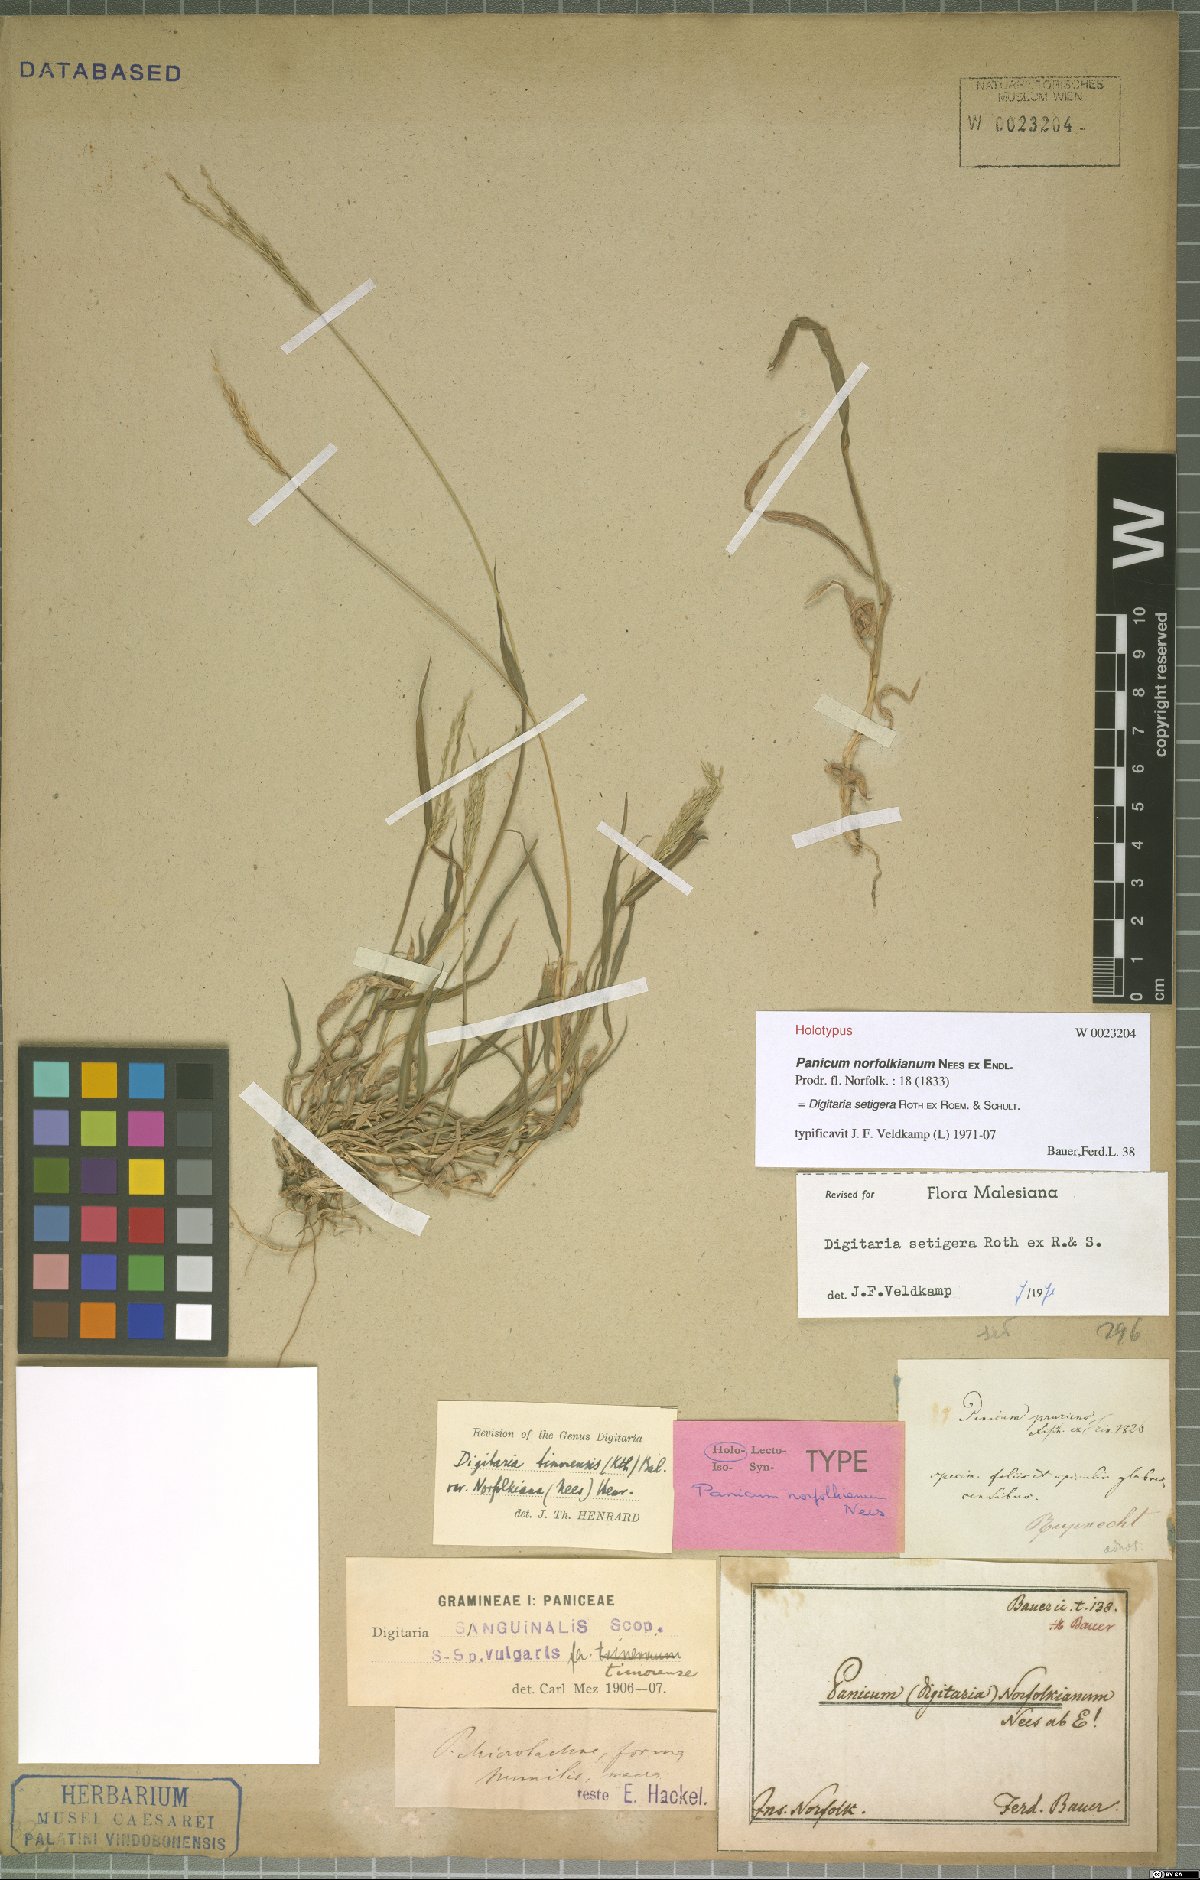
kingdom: Plantae
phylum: Tracheophyta
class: Liliopsida
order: Poales
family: Poaceae
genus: Digitaria
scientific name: Digitaria setigera
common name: East indian crabgrass
